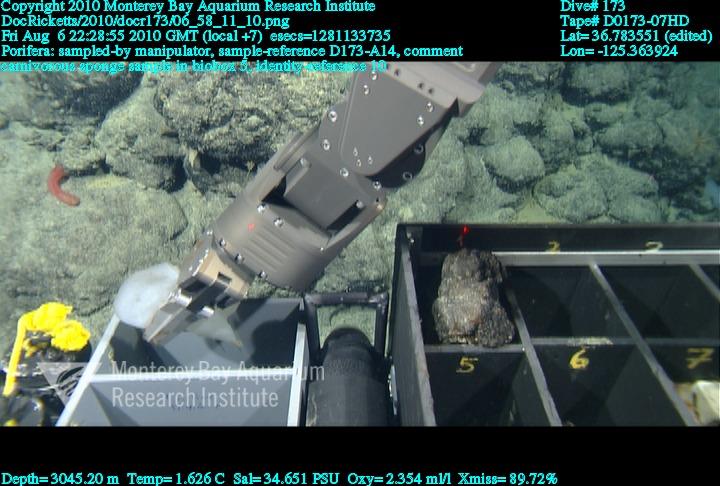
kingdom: Animalia
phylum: Porifera
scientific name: Porifera
